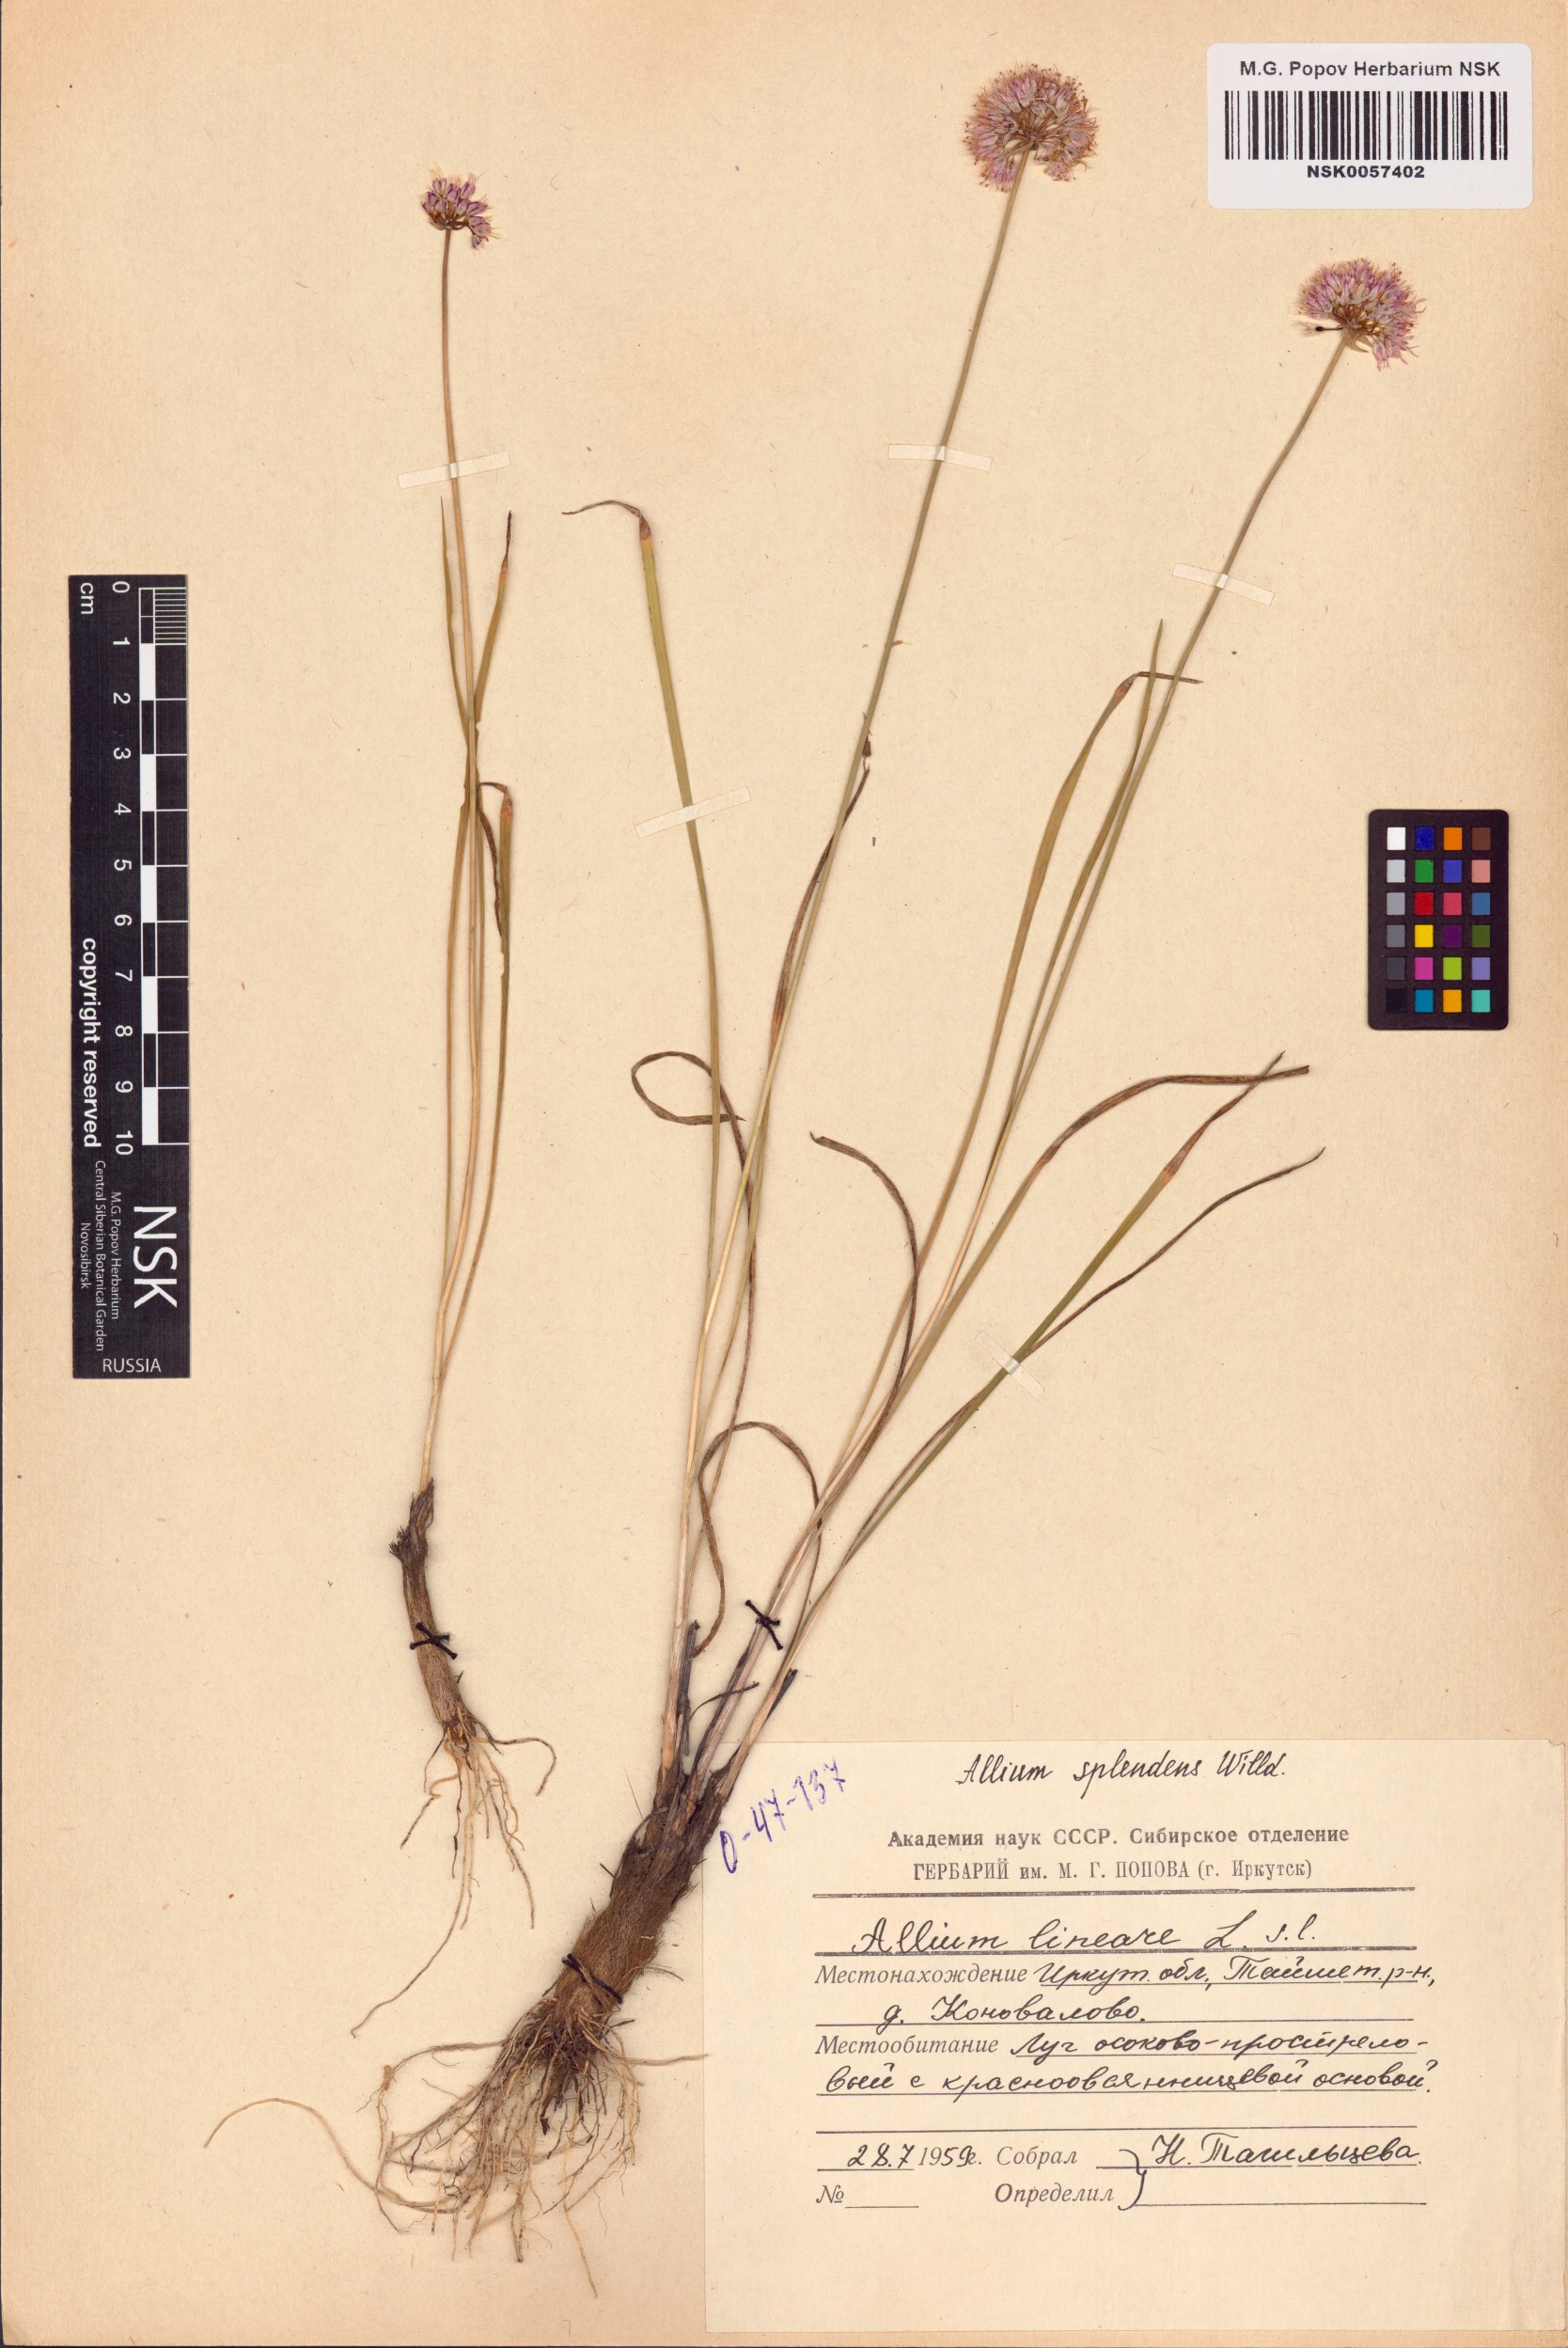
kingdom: Plantae
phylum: Tracheophyta
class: Liliopsida
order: Asparagales
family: Amaryllidaceae
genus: Allium
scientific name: Allium splendens
